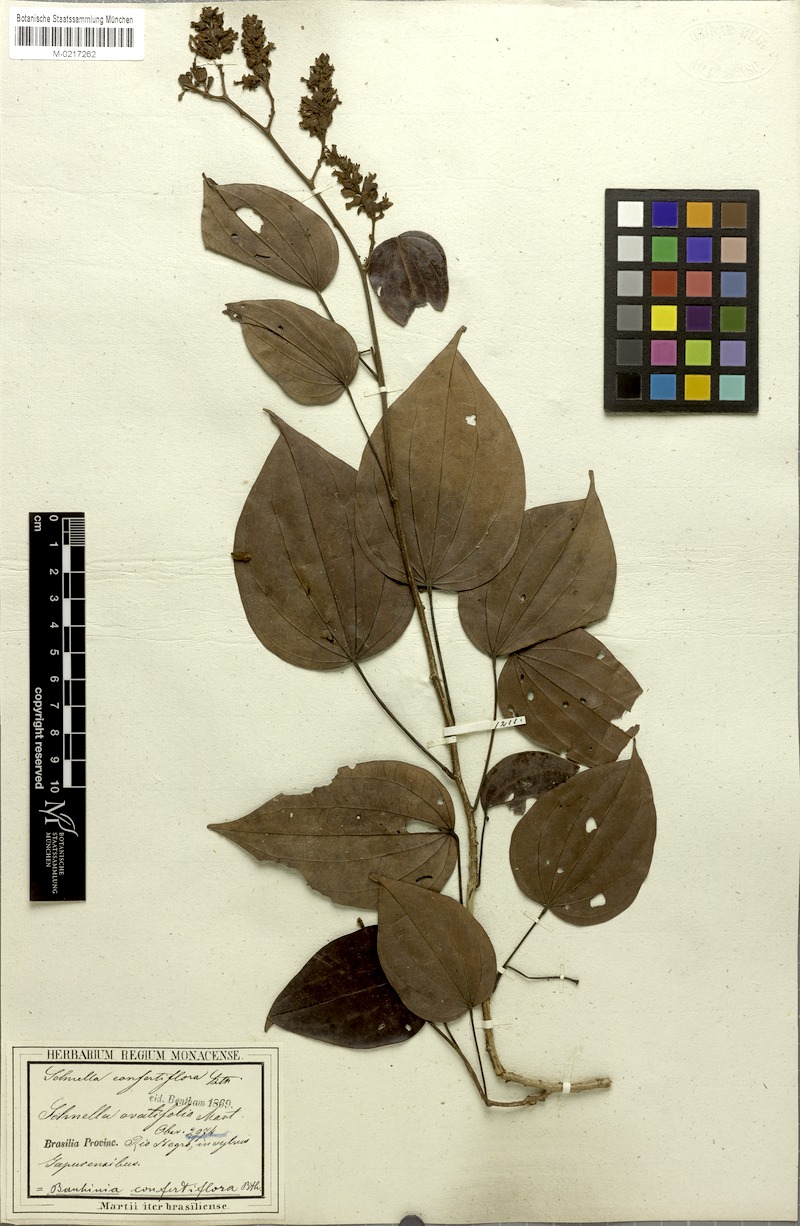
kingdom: Plantae
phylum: Tracheophyta
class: Magnoliopsida
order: Fabales
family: Fabaceae
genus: Schnella
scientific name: Schnella confertiflora
